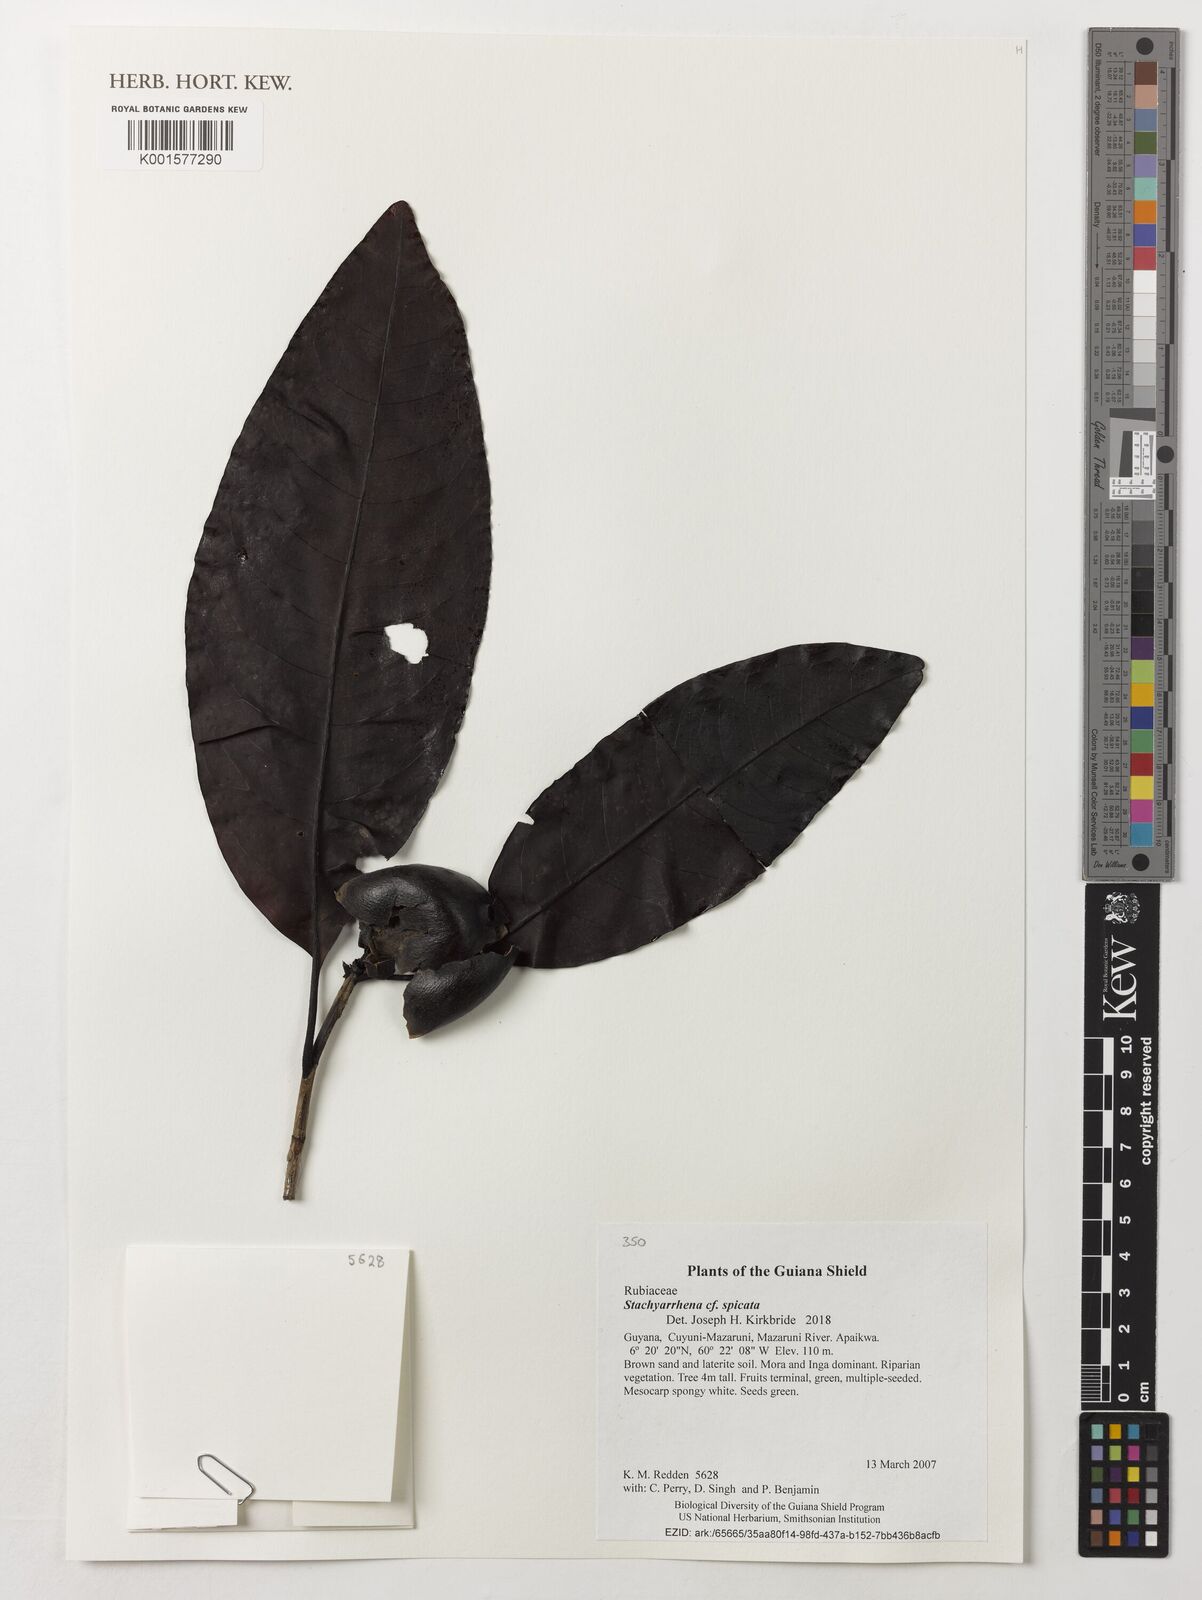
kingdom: Plantae
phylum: Tracheophyta
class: Magnoliopsida
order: Gentianales
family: Rubiaceae
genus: Stachyarrhena
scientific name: Stachyarrhena spicata
